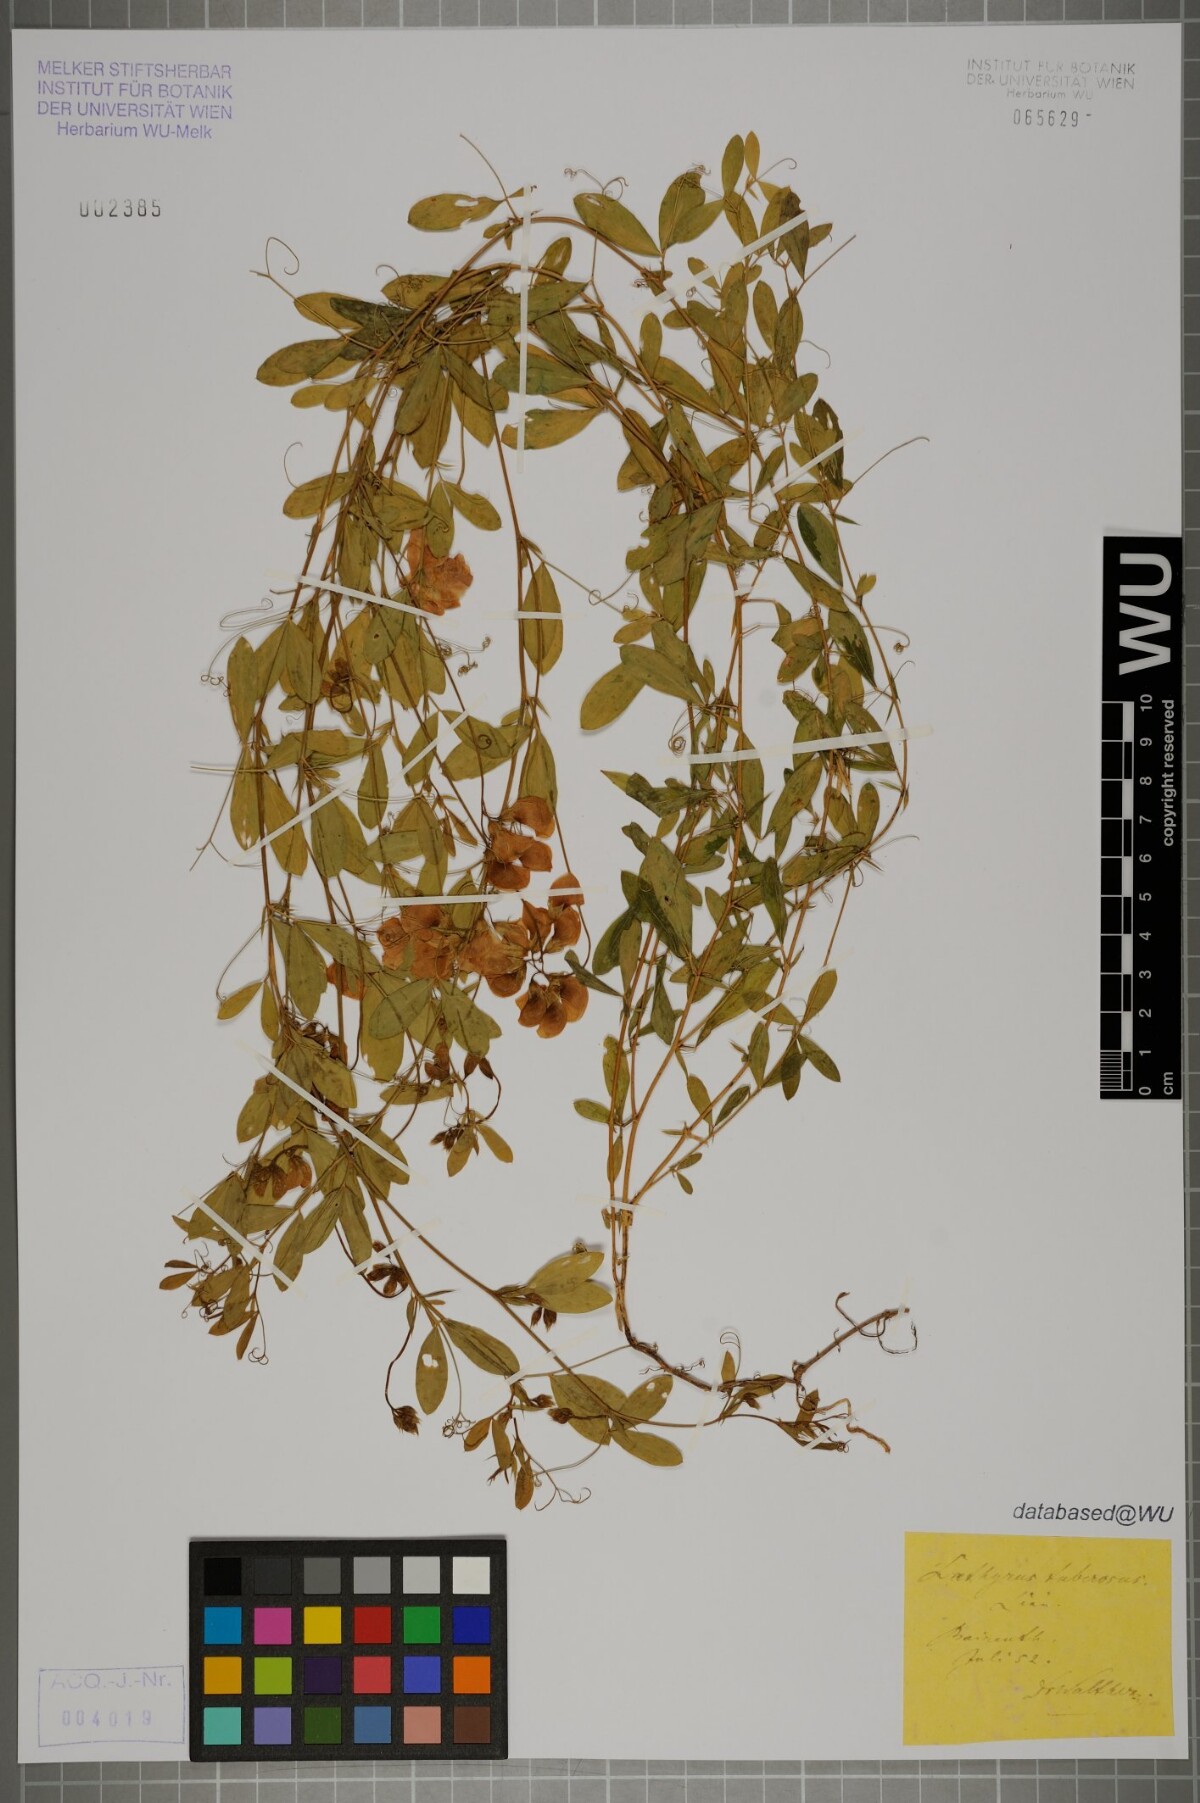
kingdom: Plantae
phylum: Tracheophyta
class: Magnoliopsida
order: Fabales
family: Fabaceae
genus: Lathyrus
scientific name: Lathyrus tuberosus
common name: Tuberous pea
